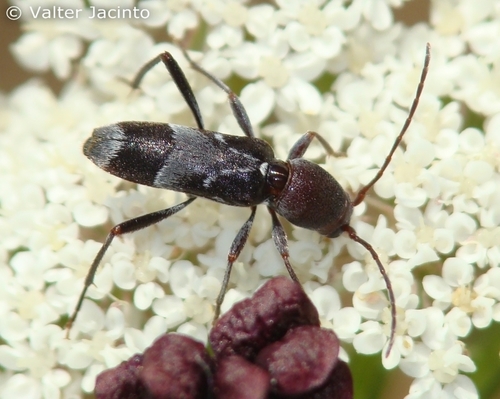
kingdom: Animalia
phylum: Arthropoda
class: Insecta
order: Coleoptera
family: Cerambycidae
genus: Chlorophorus
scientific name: Chlorophorus ruficornis
